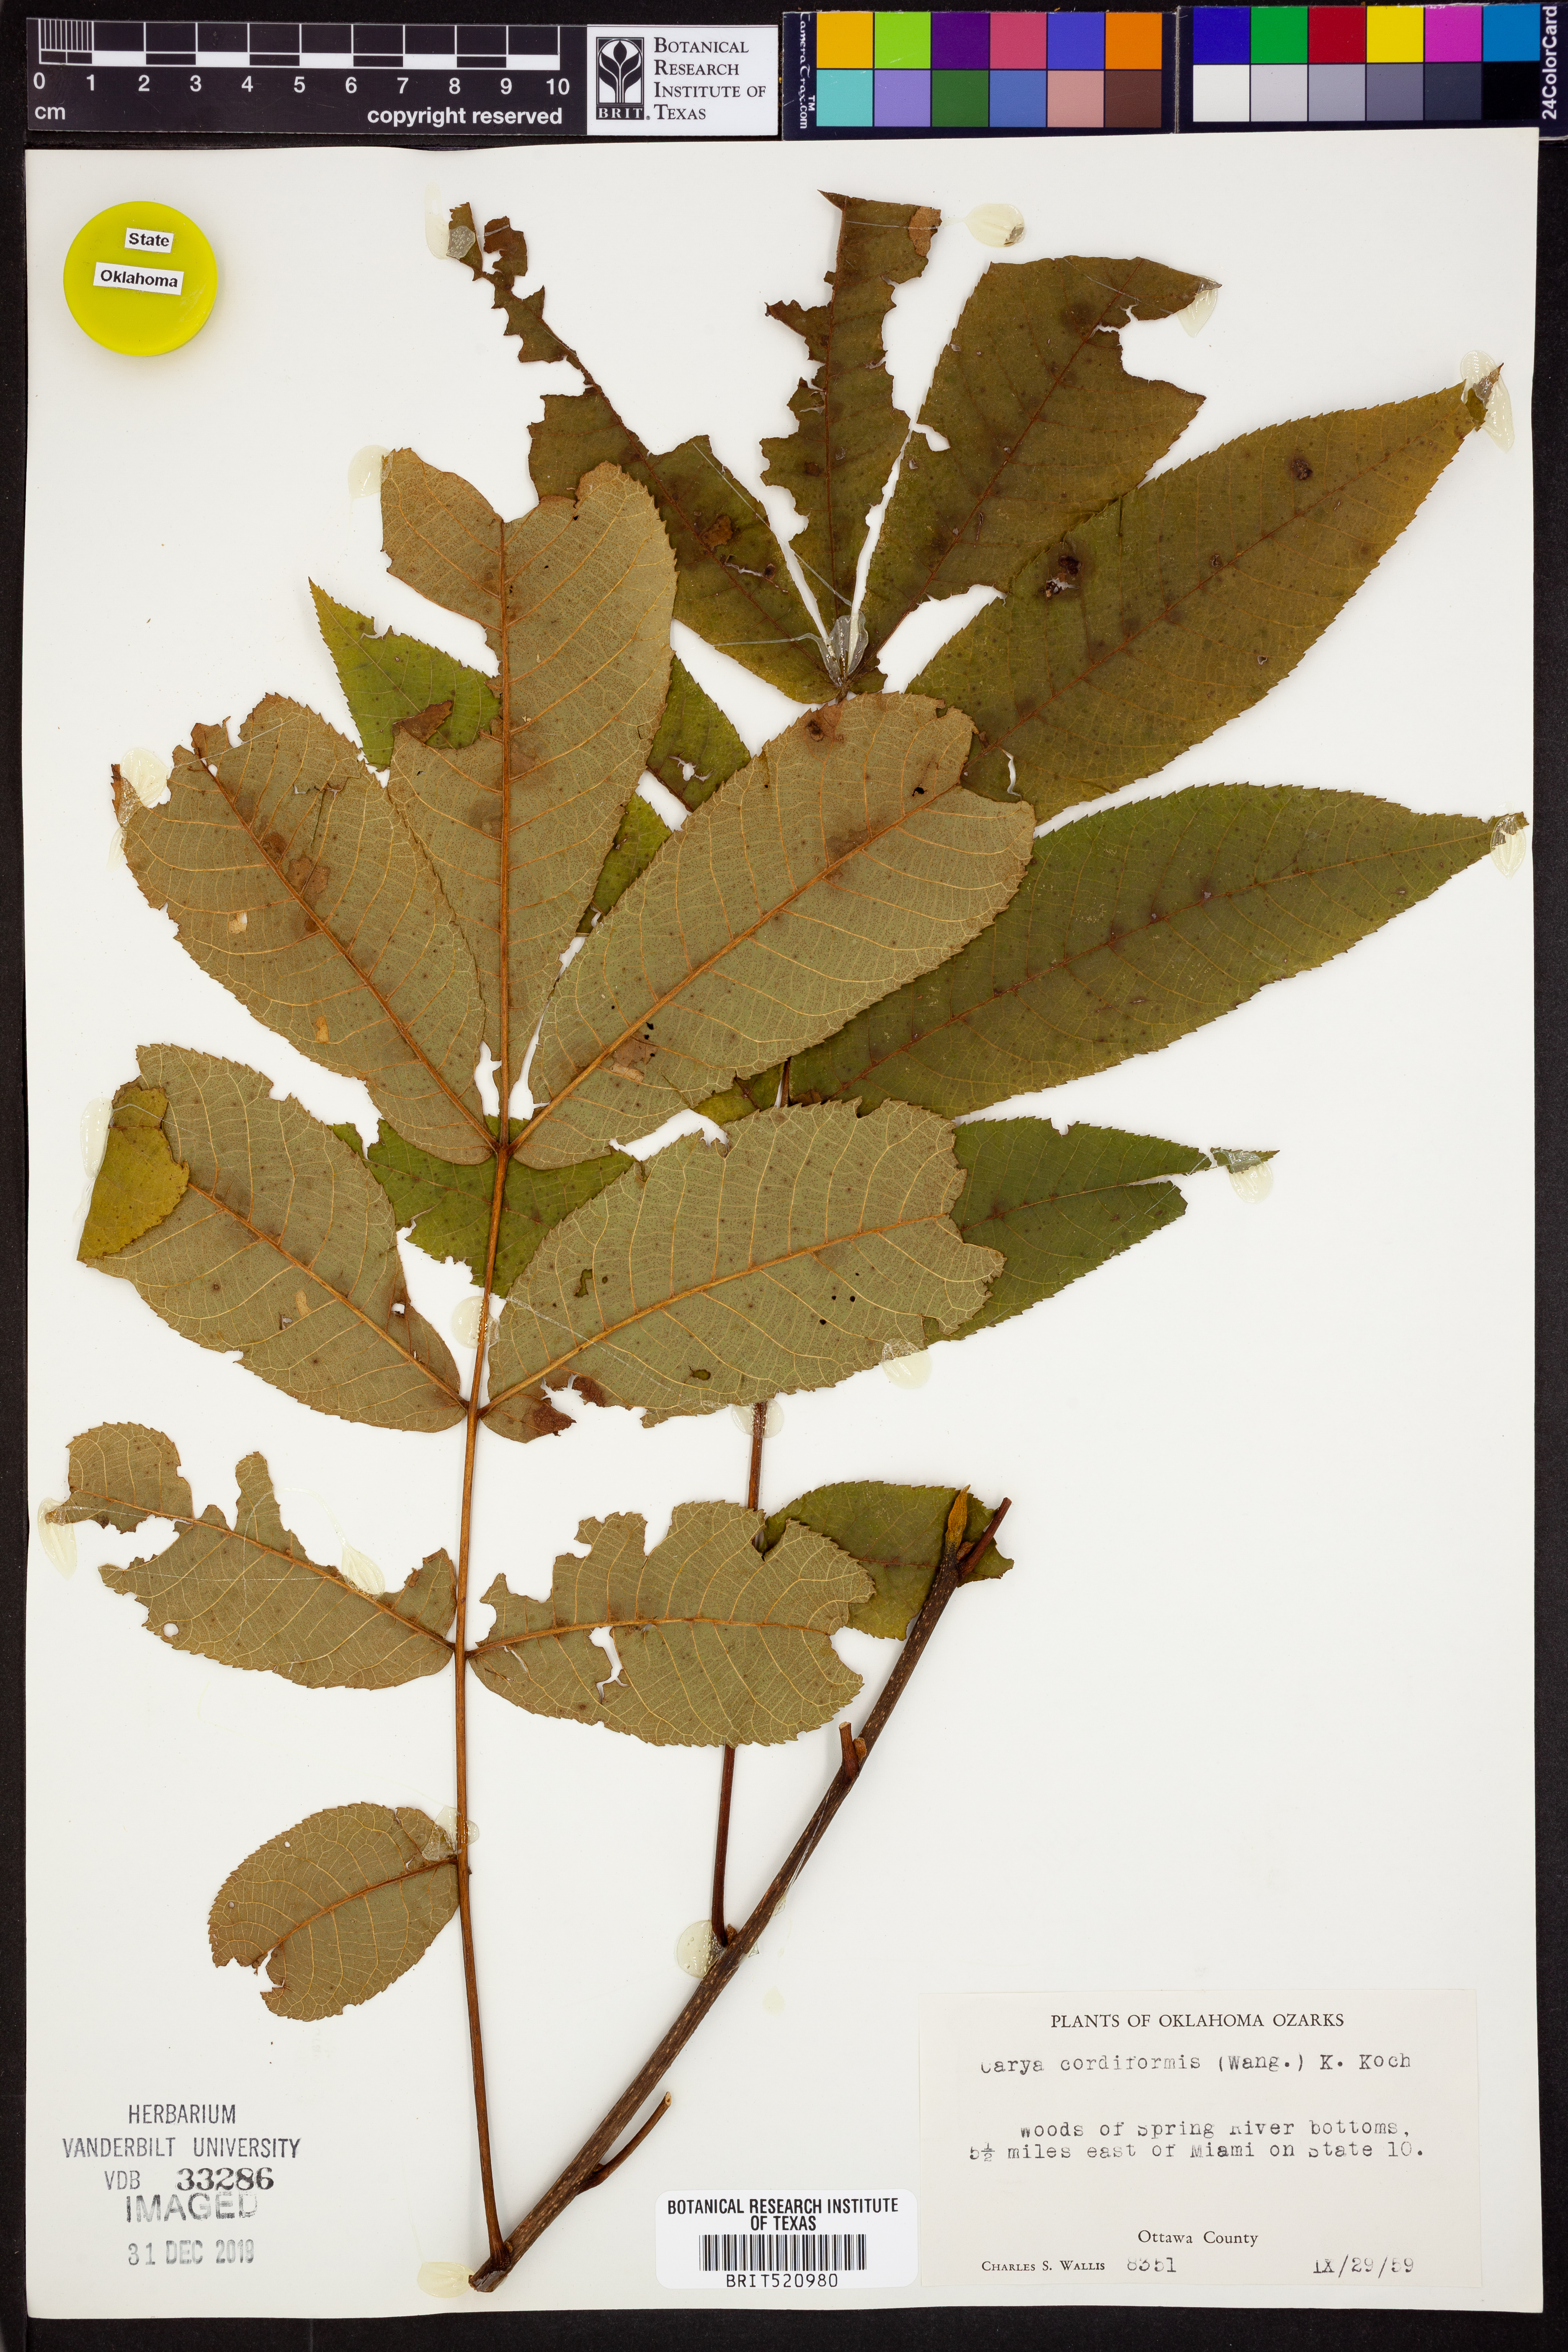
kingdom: Plantae
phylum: Tracheophyta
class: Magnoliopsida
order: Fagales
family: Juglandaceae
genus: Carya
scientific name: Carya cordiformis
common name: Bitternut hickory
